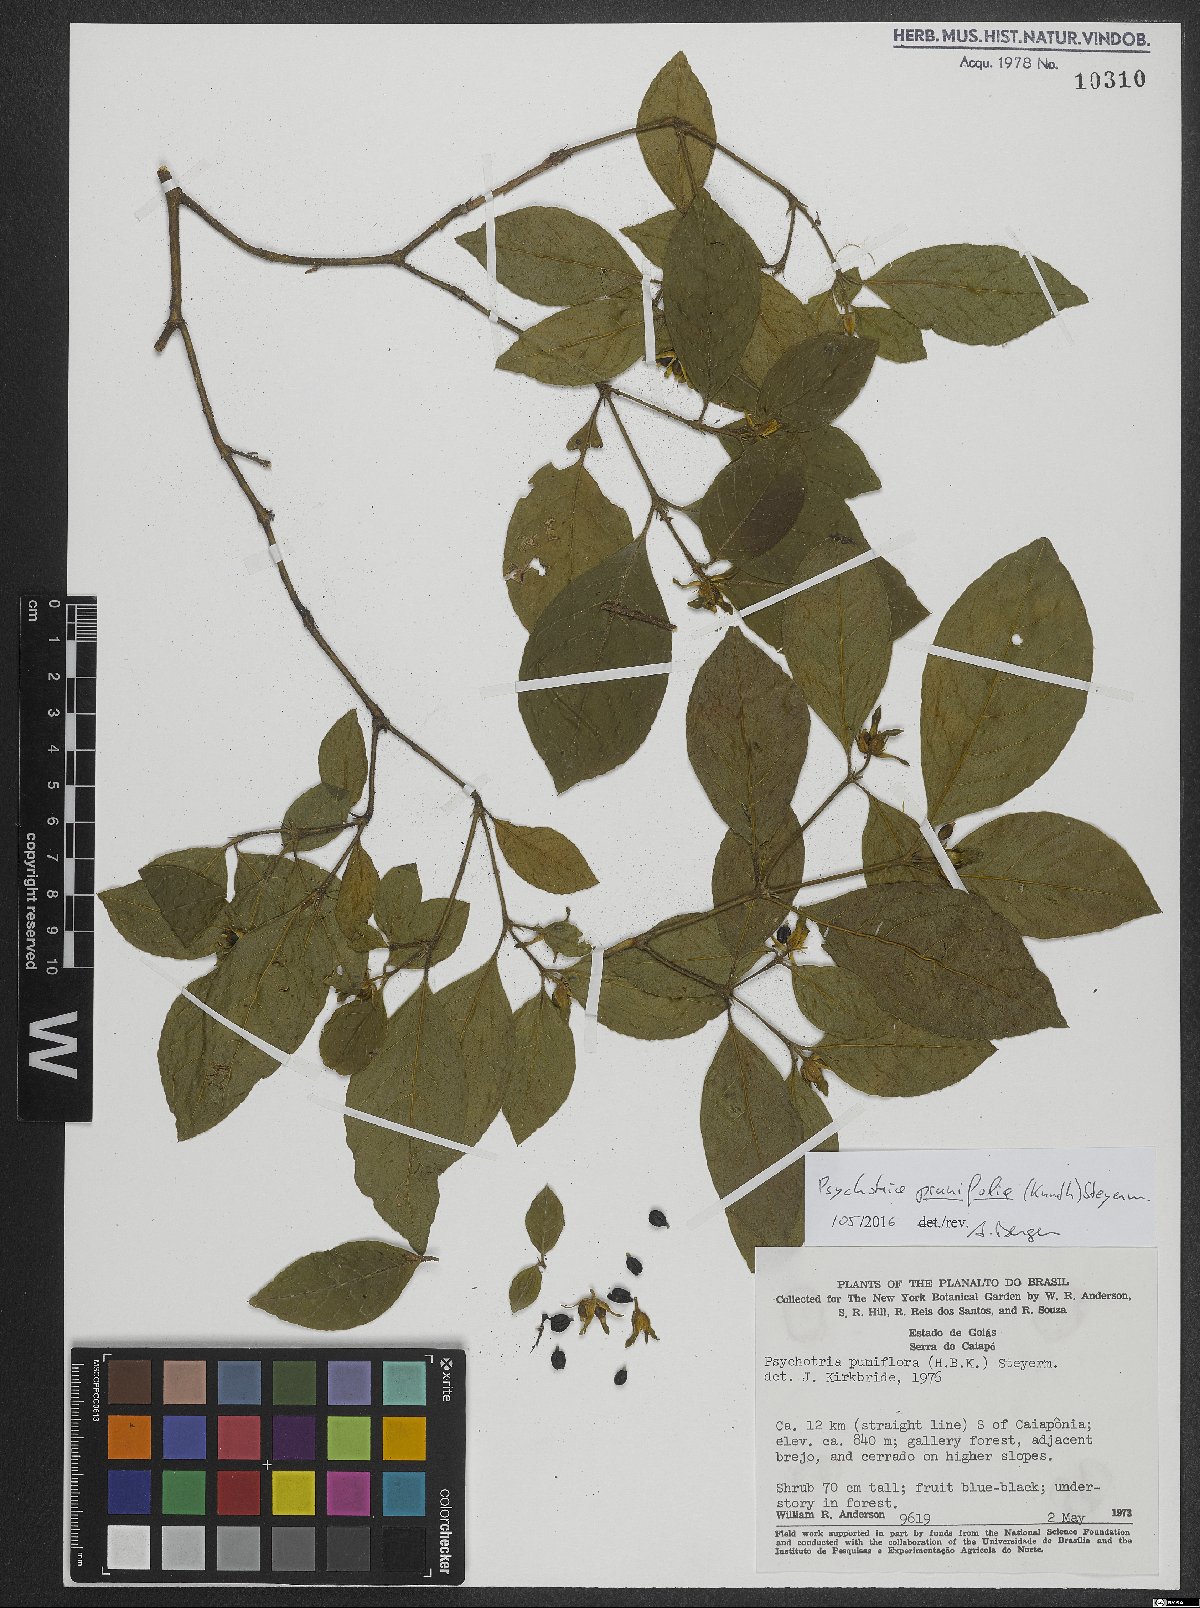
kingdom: Plantae
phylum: Tracheophyta
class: Magnoliopsida
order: Gentianales
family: Rubiaceae
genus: Palicourea
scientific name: Palicourea prunifolia
